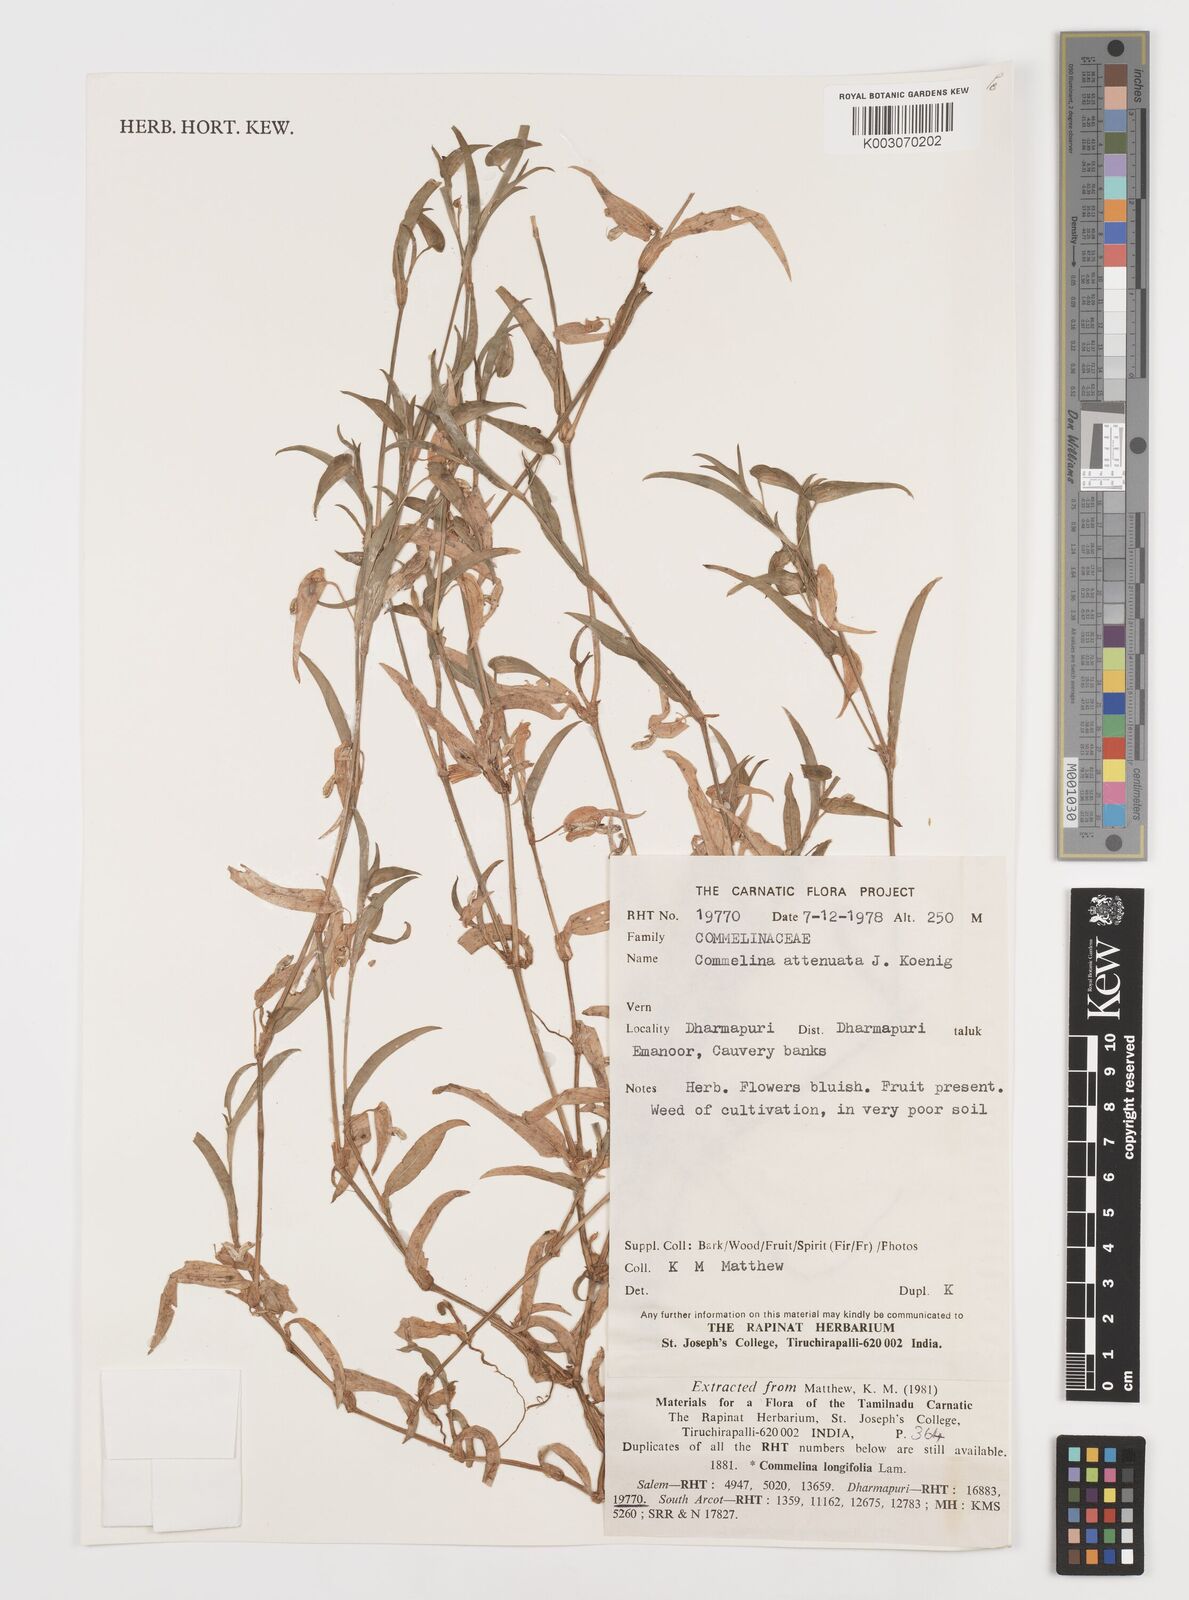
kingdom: Plantae
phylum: Tracheophyta
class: Liliopsida
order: Commelinales
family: Commelinaceae
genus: Commelina
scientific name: Commelina attenuata
